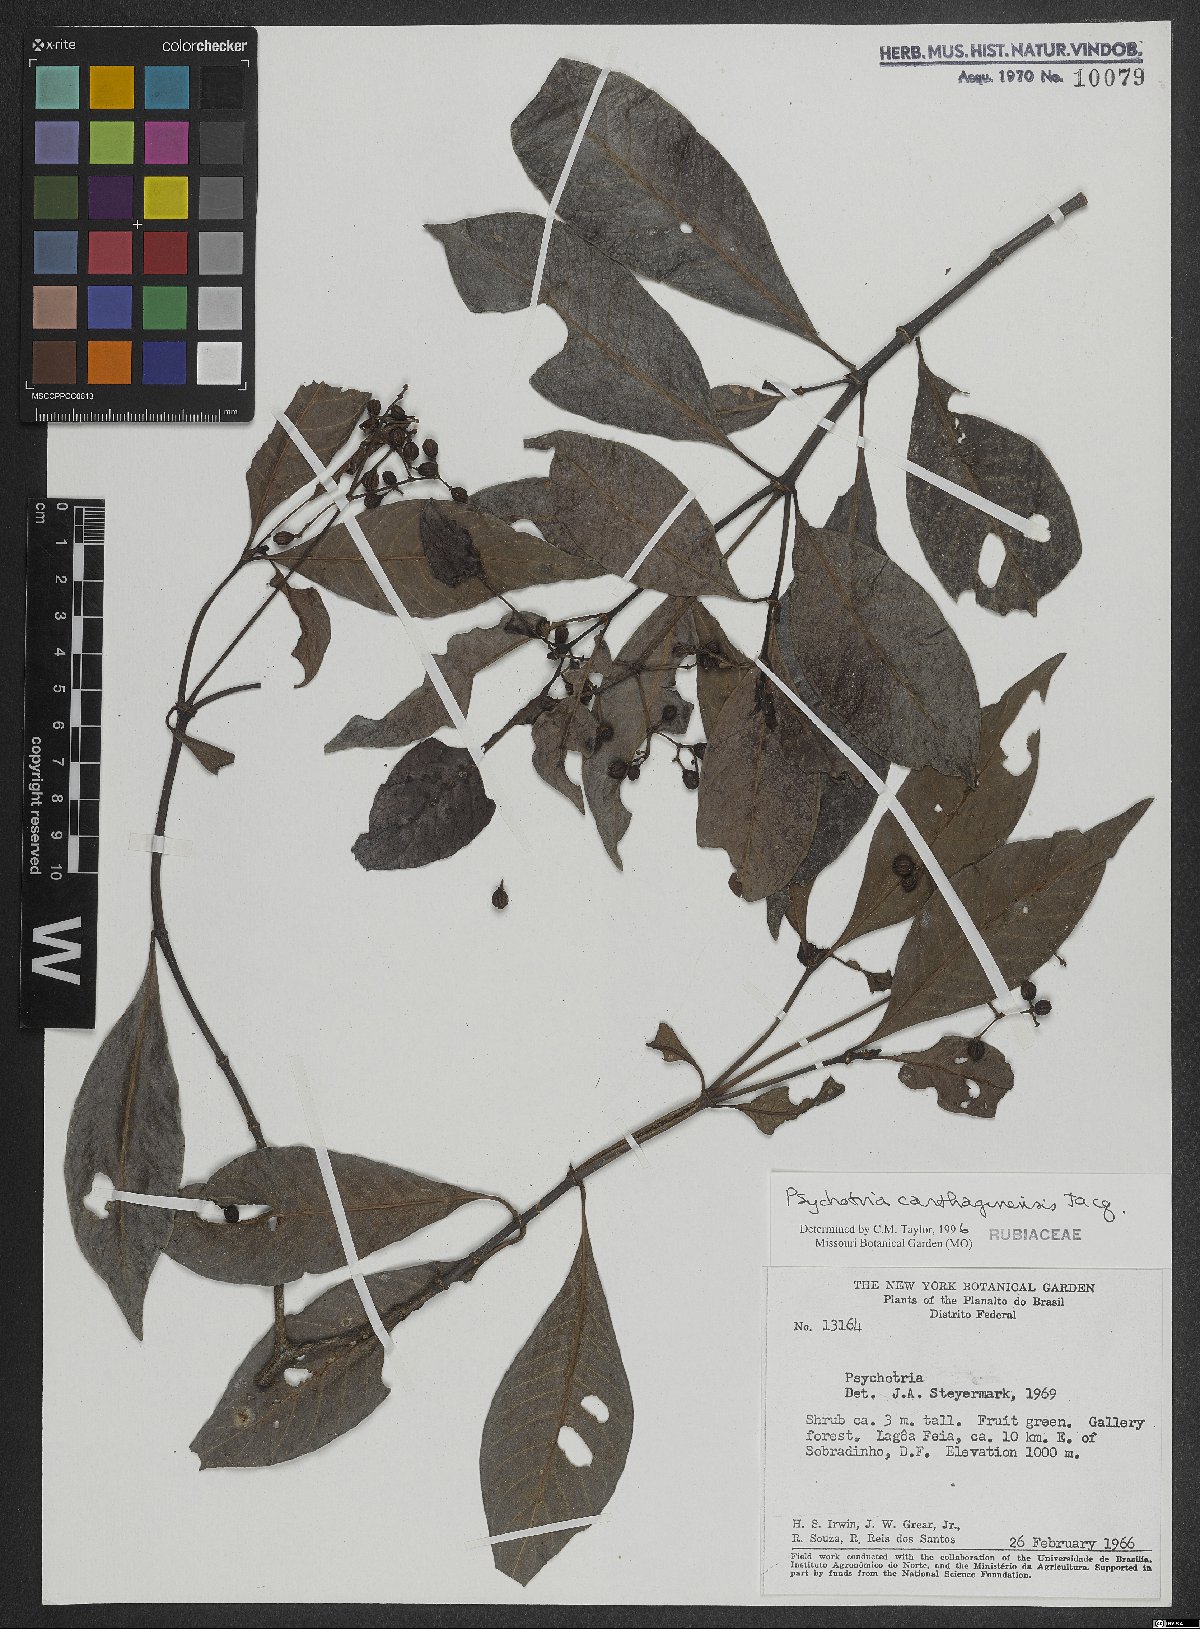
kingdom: Plantae
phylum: Tracheophyta
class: Magnoliopsida
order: Gentianales
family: Rubiaceae
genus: Psychotria
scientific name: Psychotria carthagenensis
